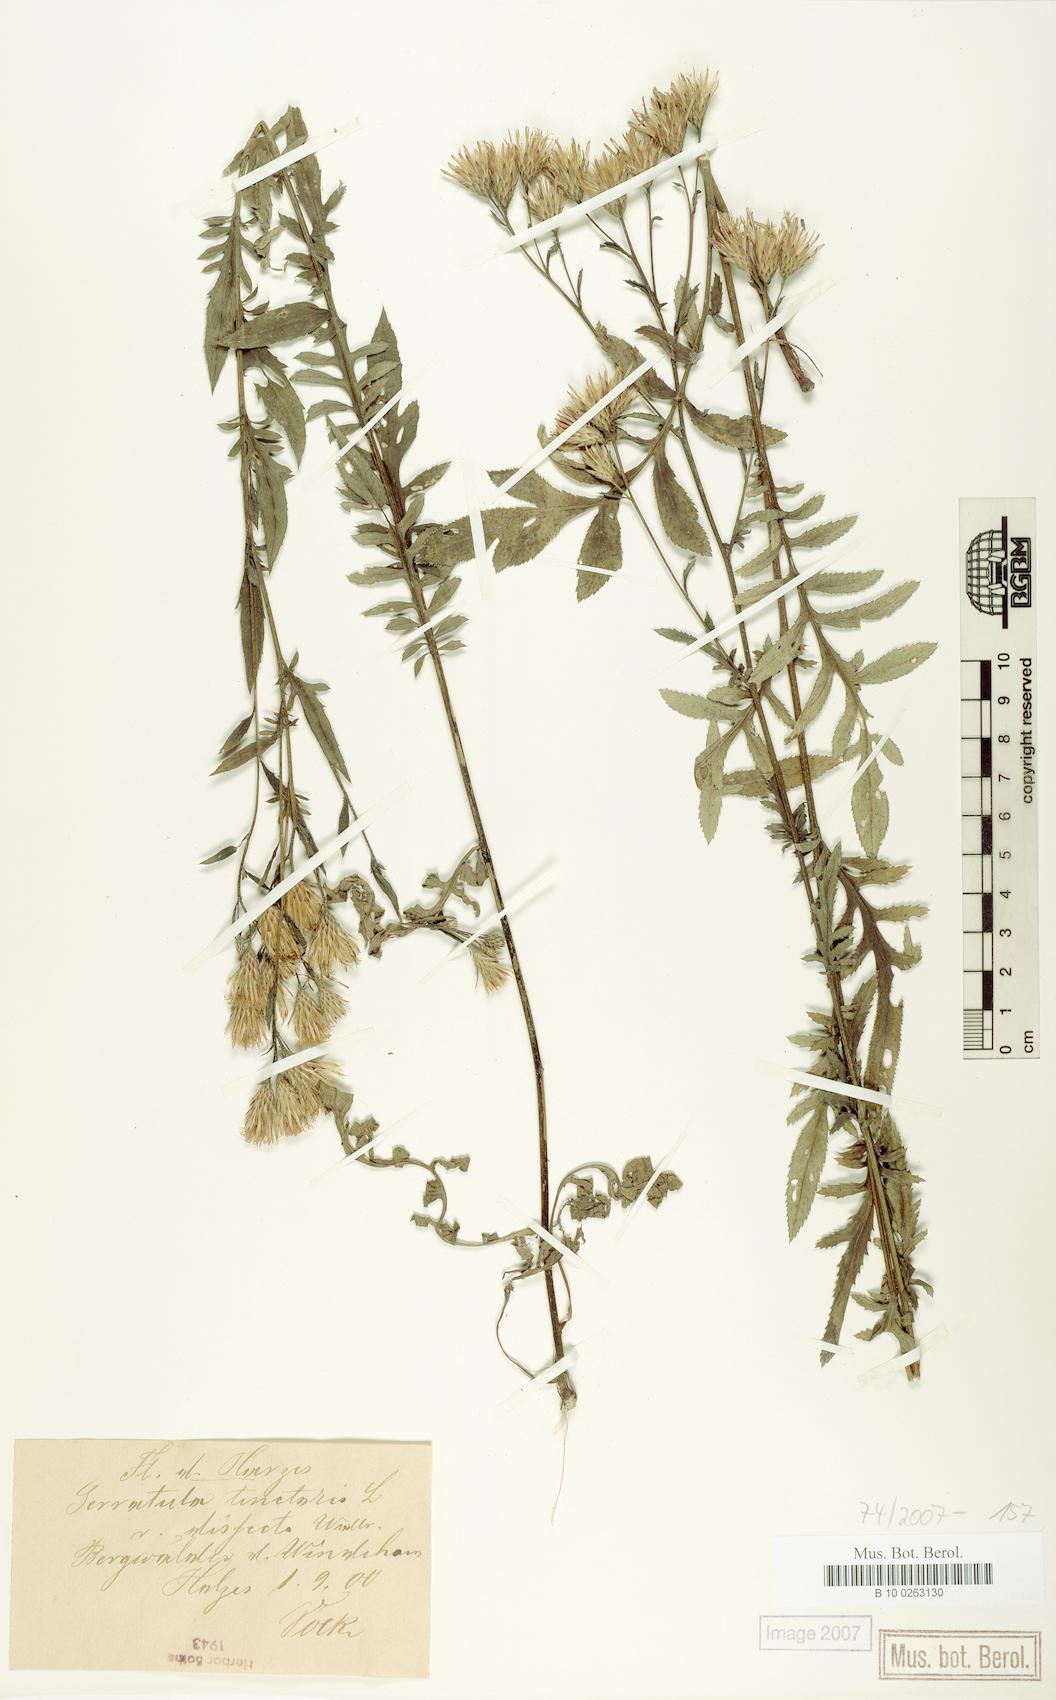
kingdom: Plantae
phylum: Tracheophyta
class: Magnoliopsida
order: Asterales
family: Asteraceae
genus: Serratula
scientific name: Serratula tinctoria
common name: Saw-wort
